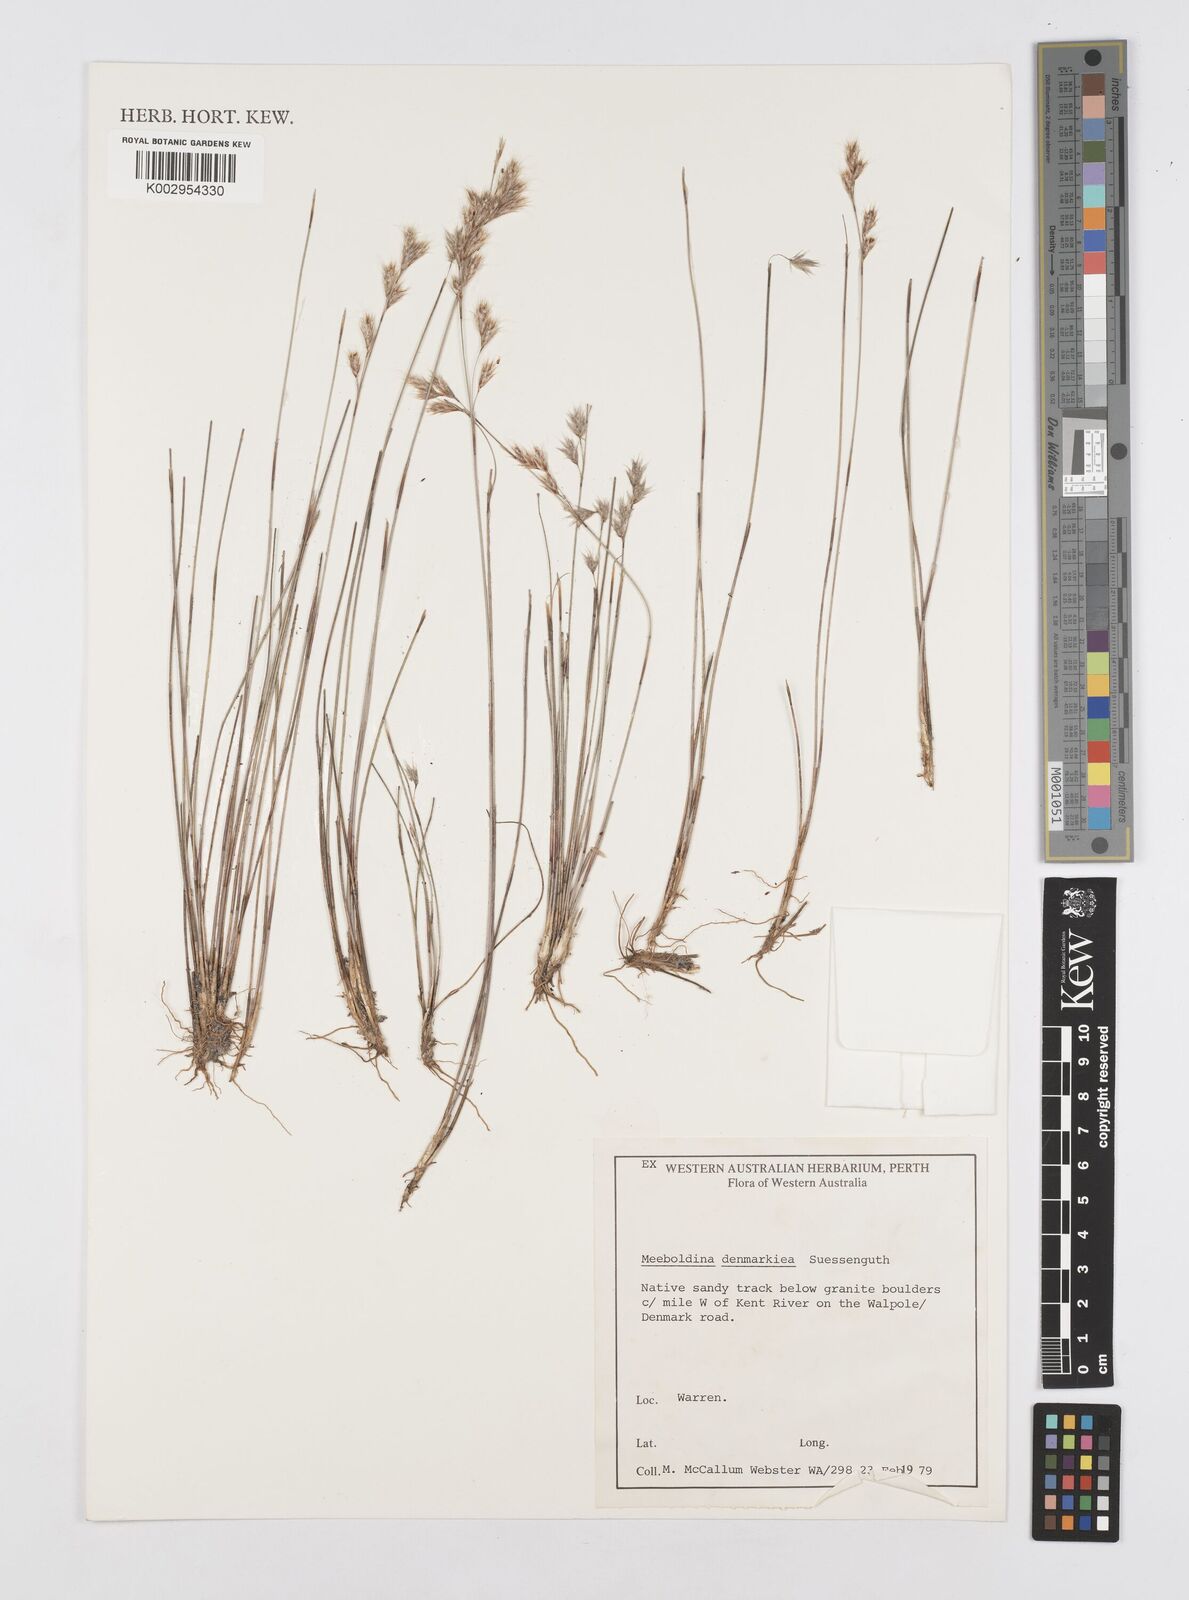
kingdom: Plantae
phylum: Tracheophyta
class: Liliopsida
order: Poales
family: Restionaceae
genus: Leptocarpus
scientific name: Leptocarpus denmarkicus
